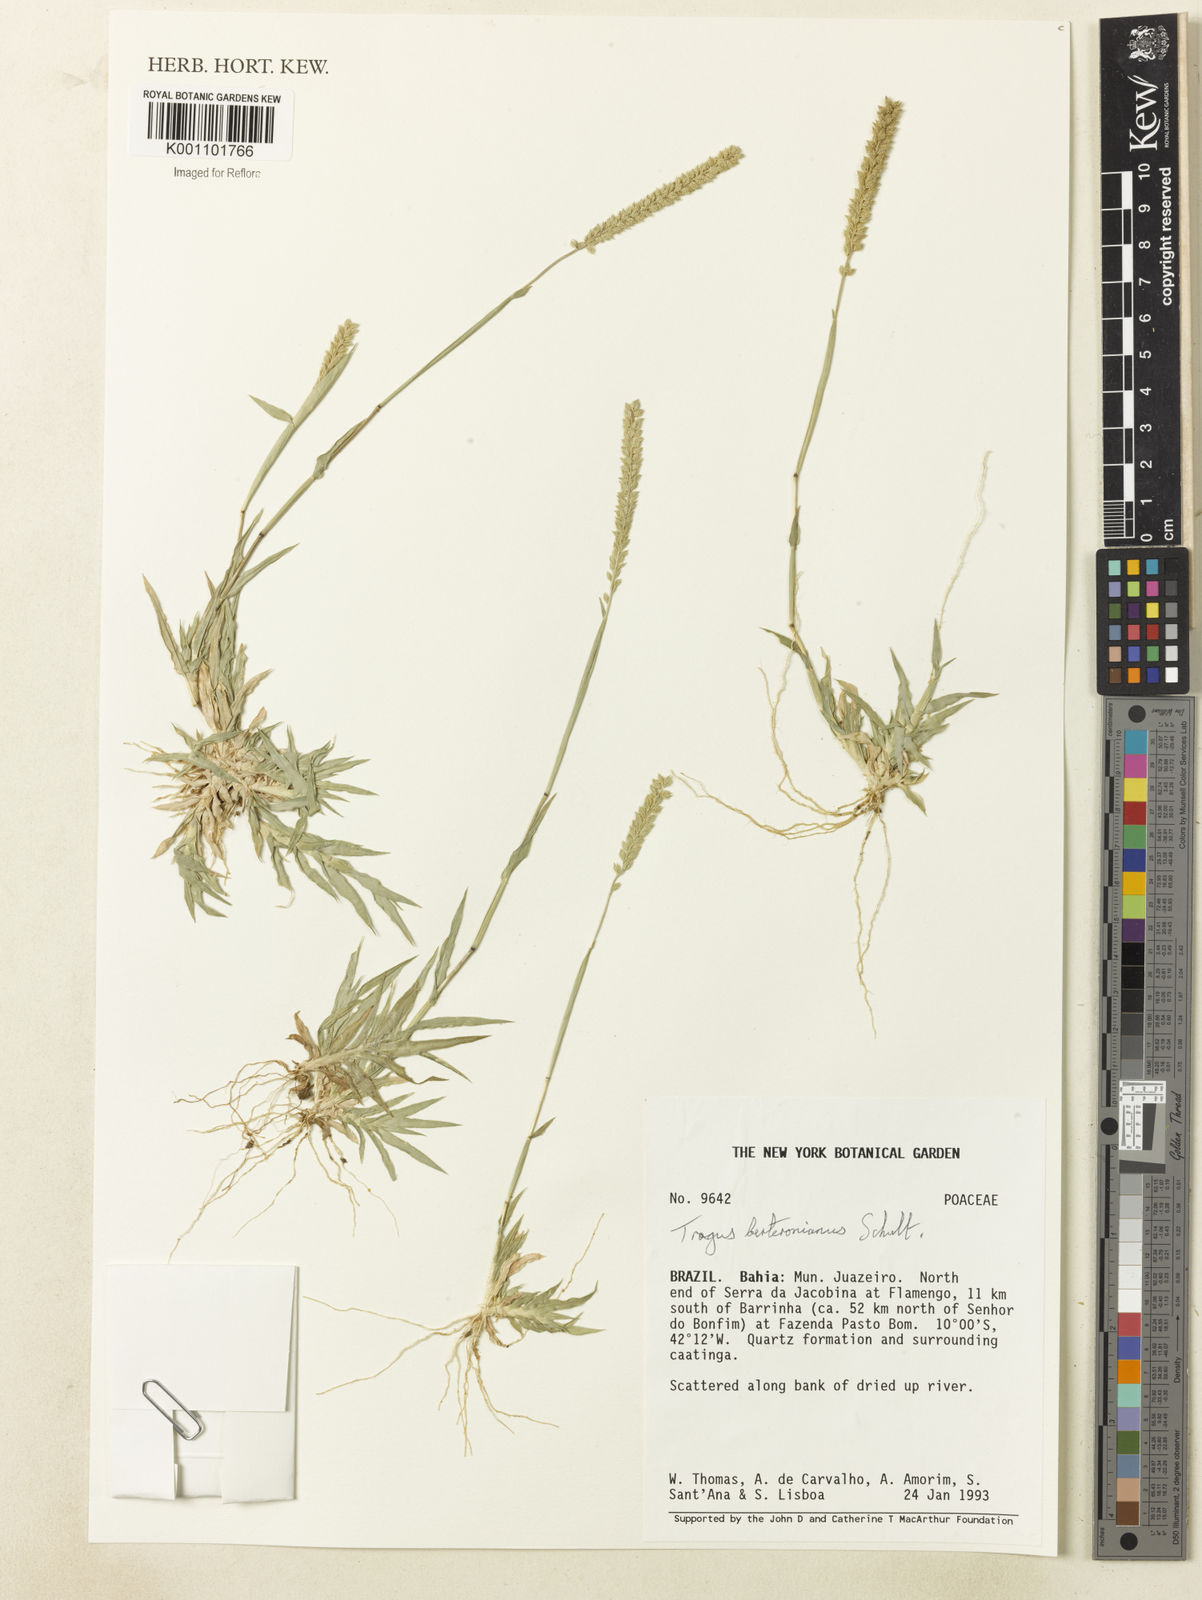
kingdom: Plantae
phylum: Tracheophyta
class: Liliopsida
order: Poales
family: Poaceae
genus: Tragus
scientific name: Tragus berteronianus
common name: African bur-grass
